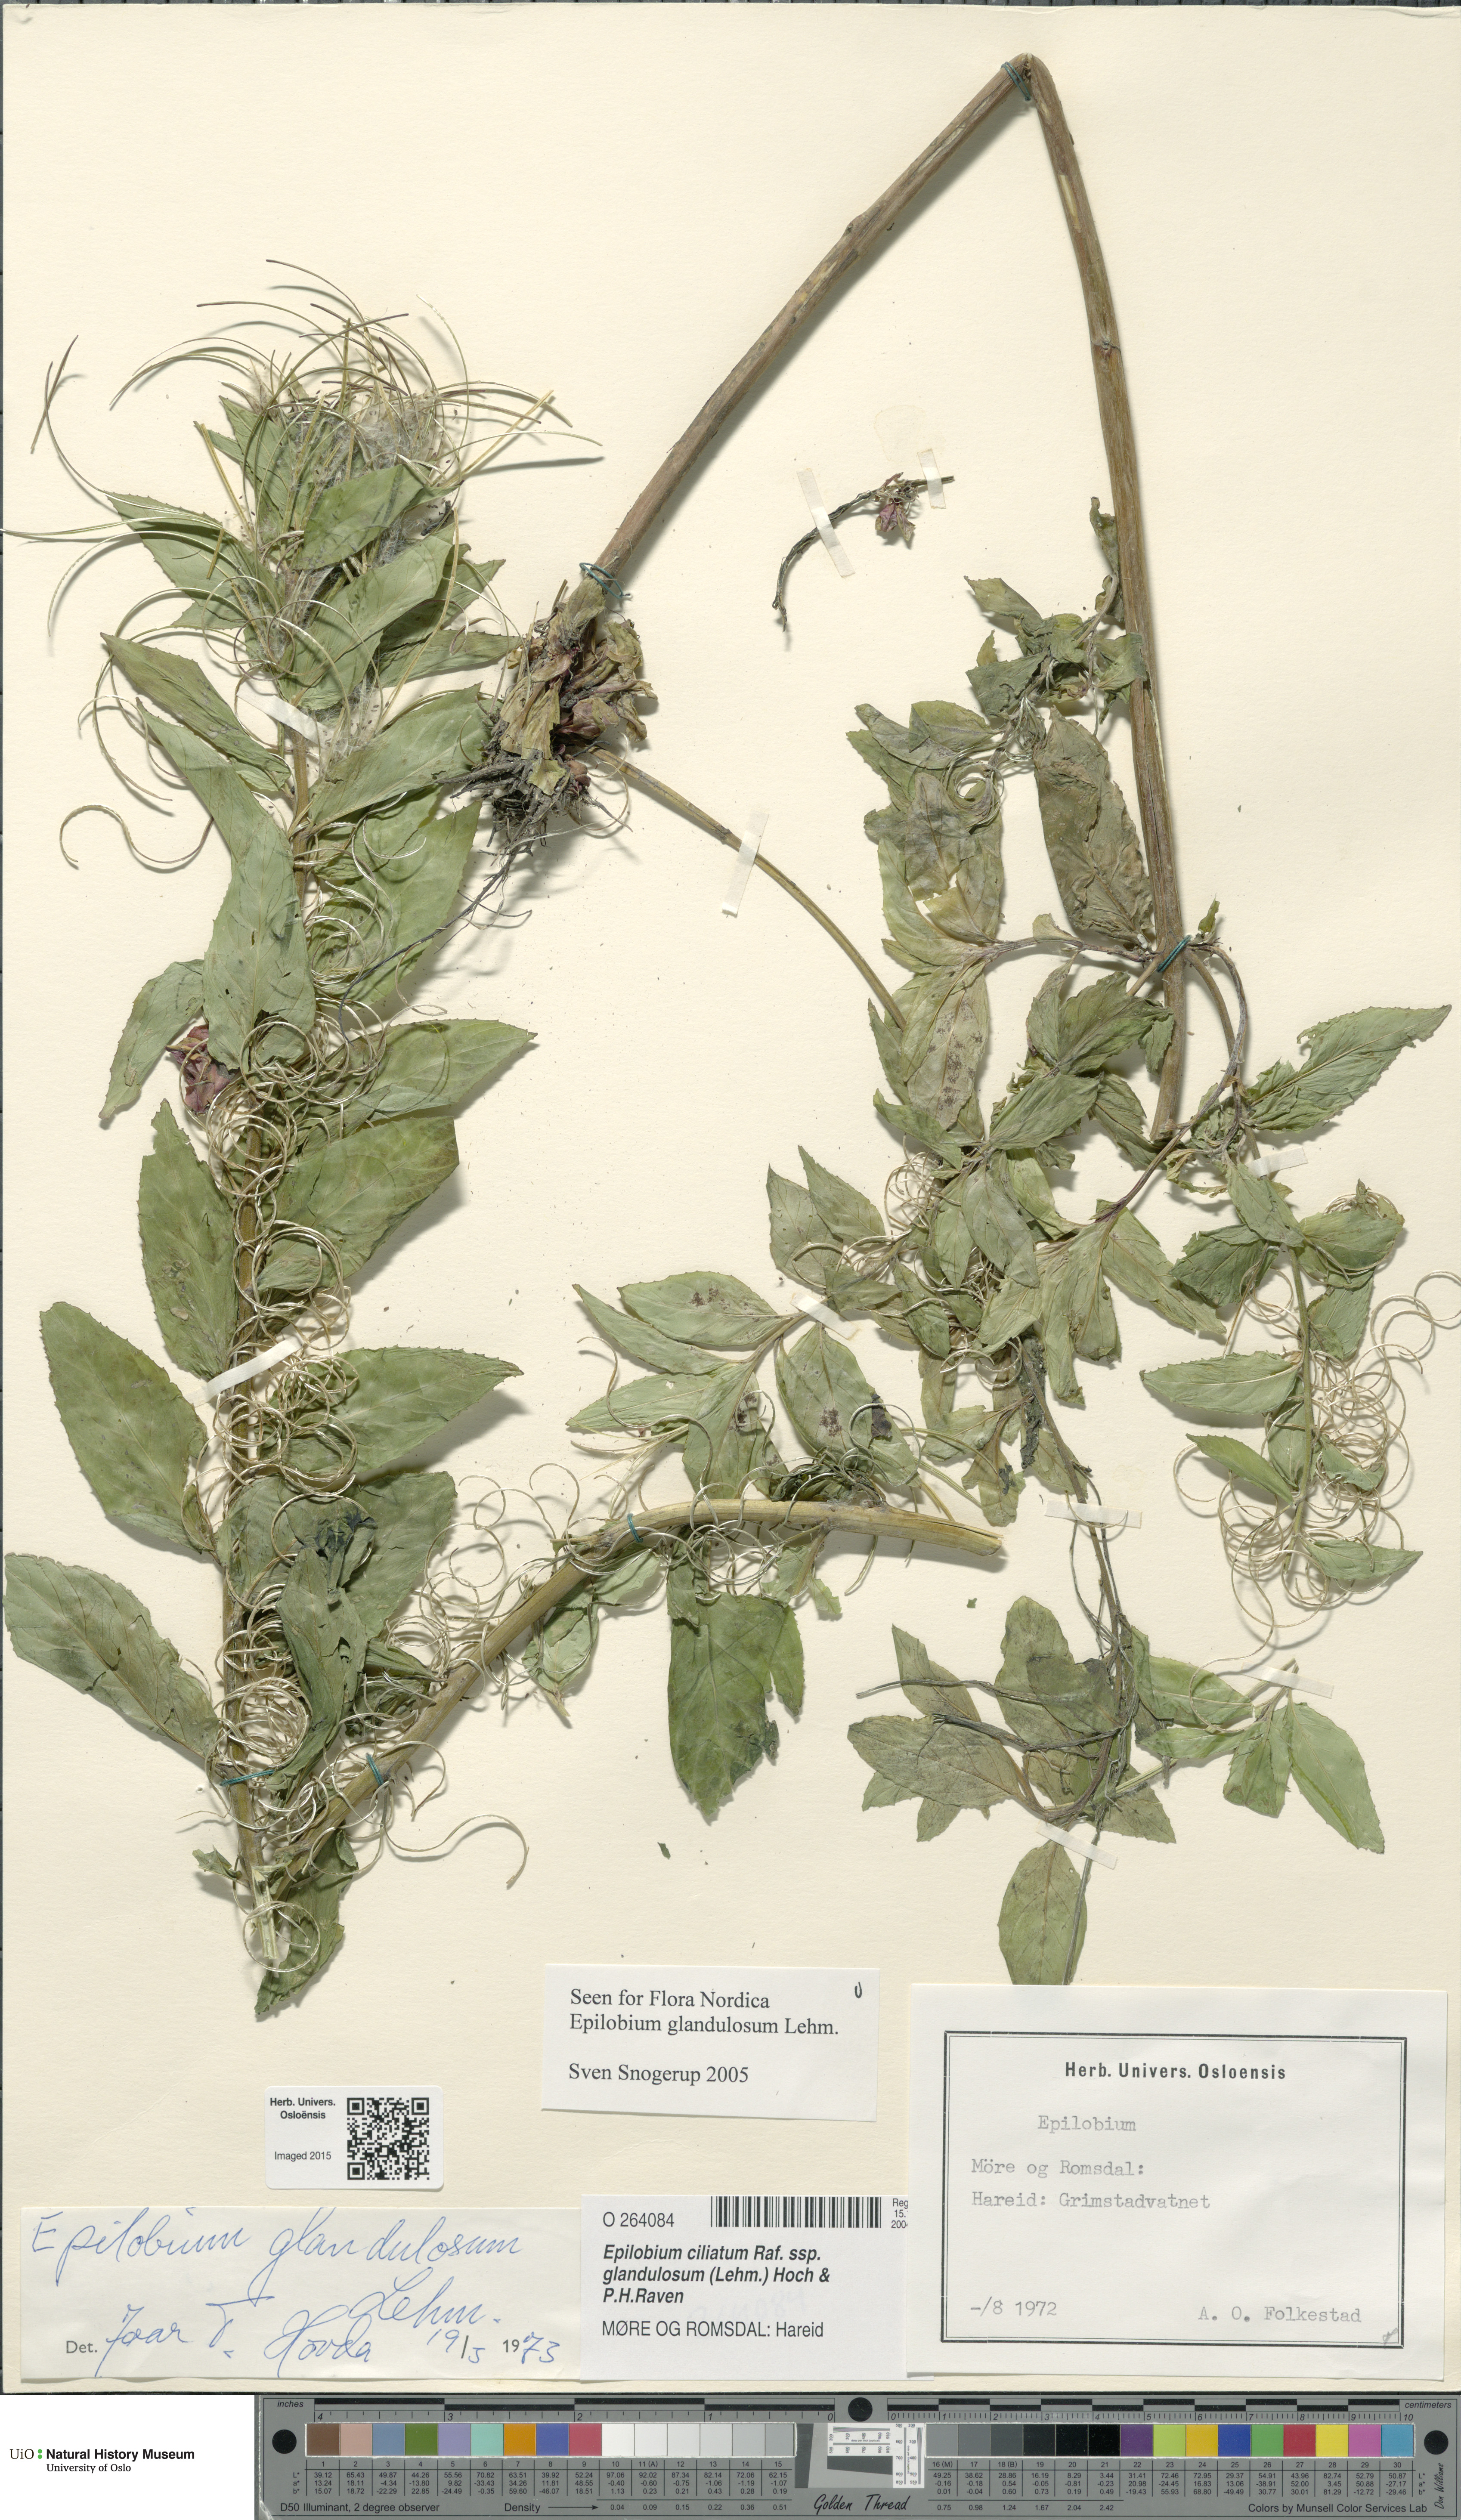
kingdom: Plantae
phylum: Tracheophyta
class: Magnoliopsida
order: Myrtales
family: Onagraceae
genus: Epilobium
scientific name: Epilobium ciliatum
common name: American willowherb
